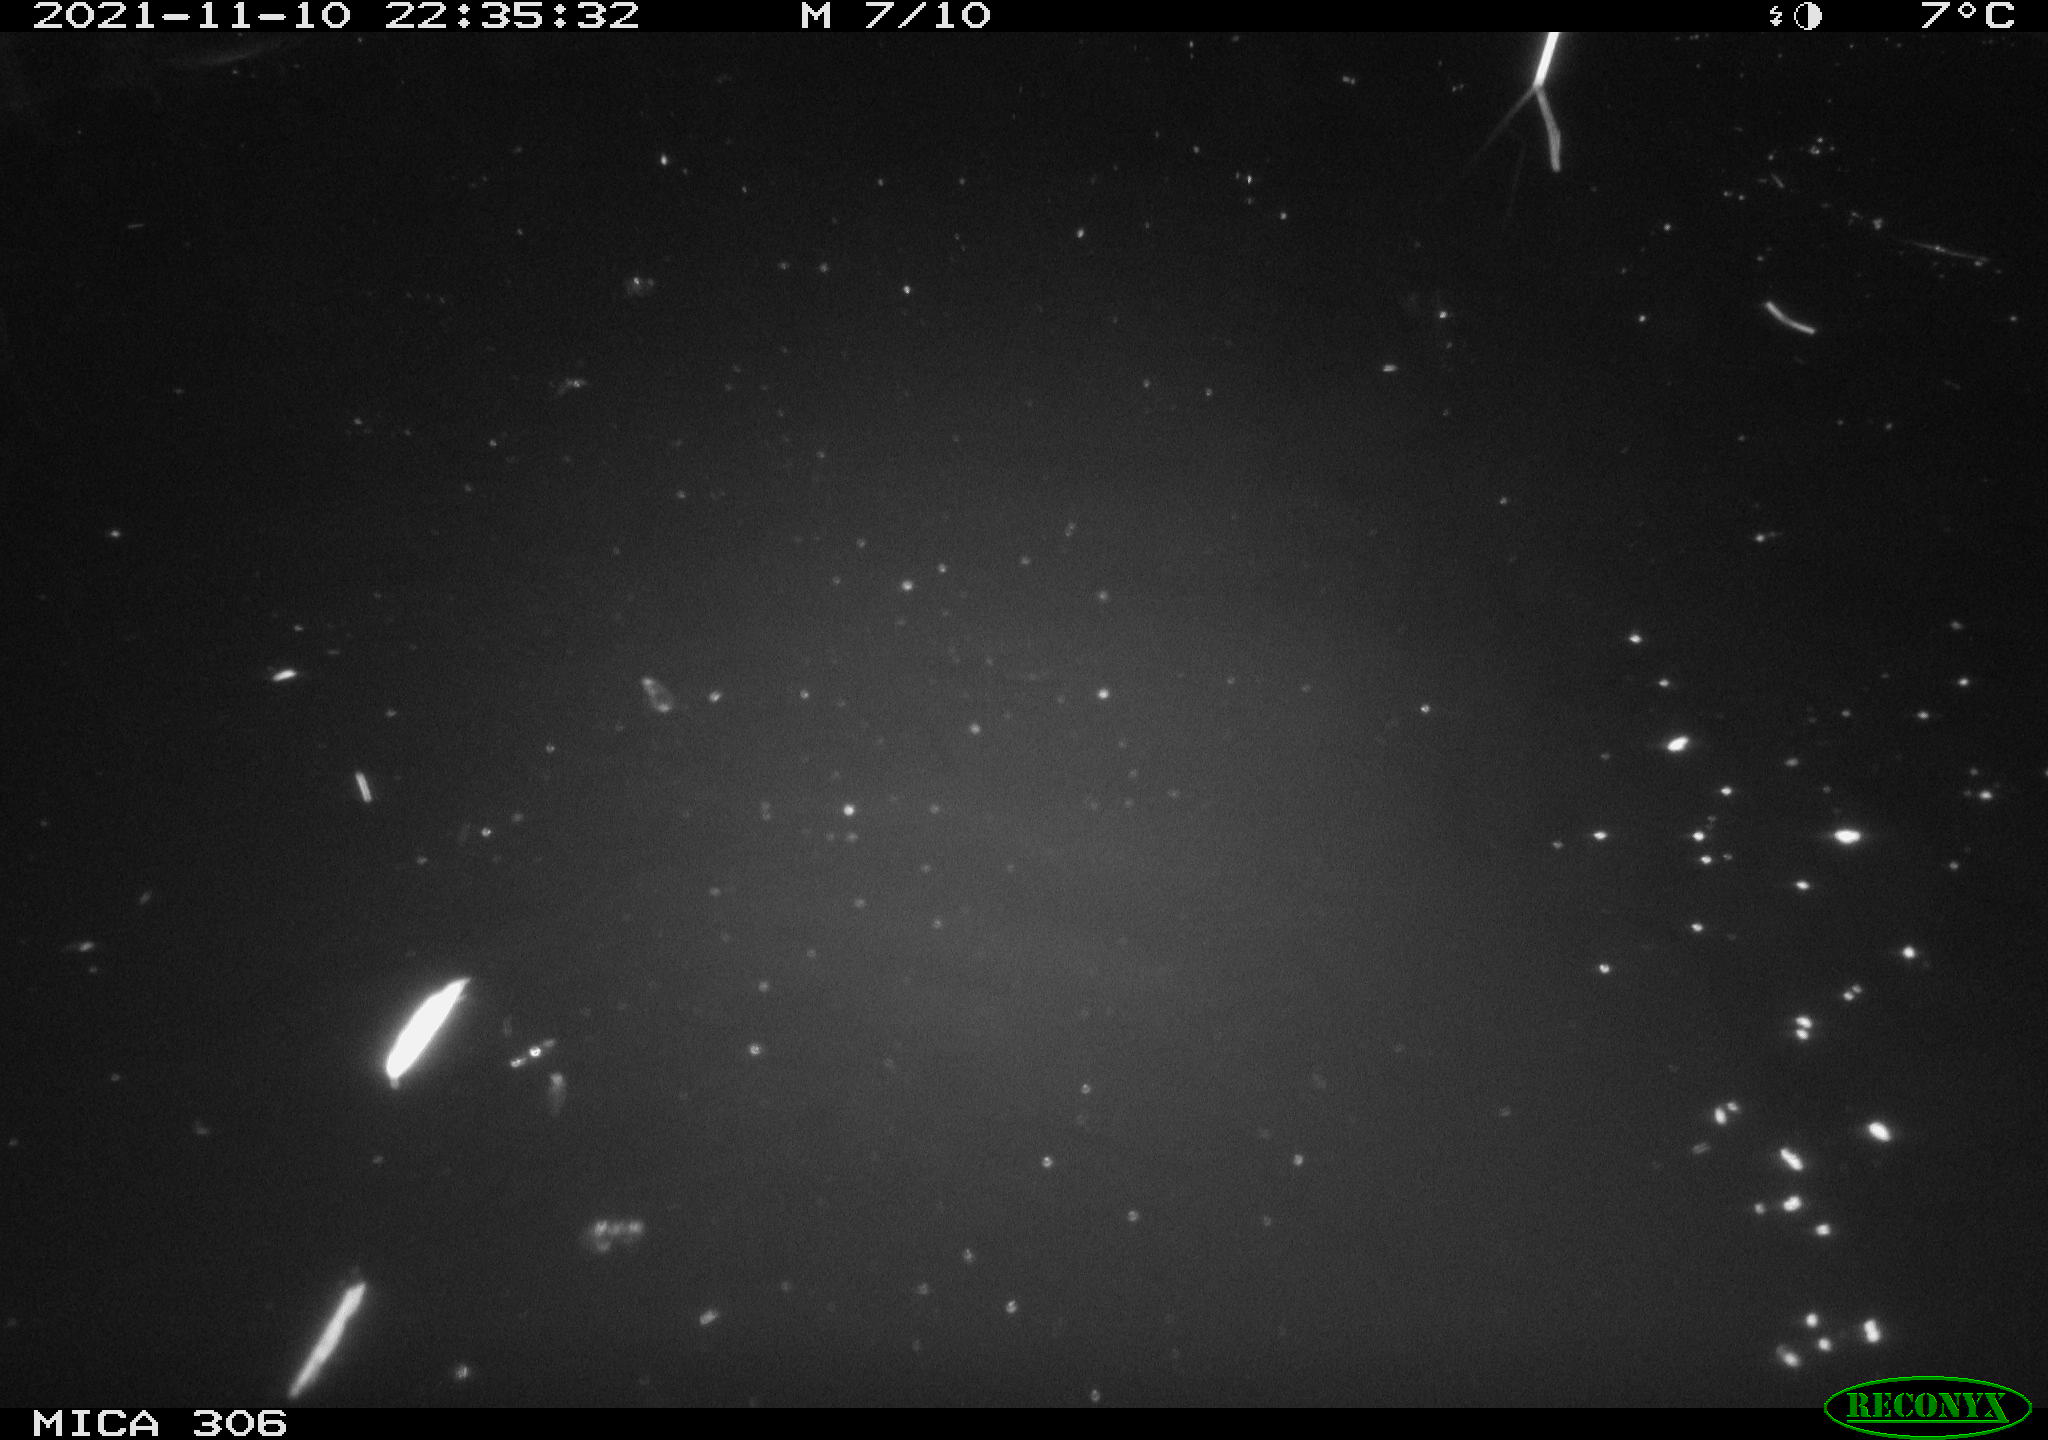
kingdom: Animalia
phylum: Chordata
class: Mammalia
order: Rodentia
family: Cricetidae
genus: Ondatra
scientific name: Ondatra zibethicus
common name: Muskrat
